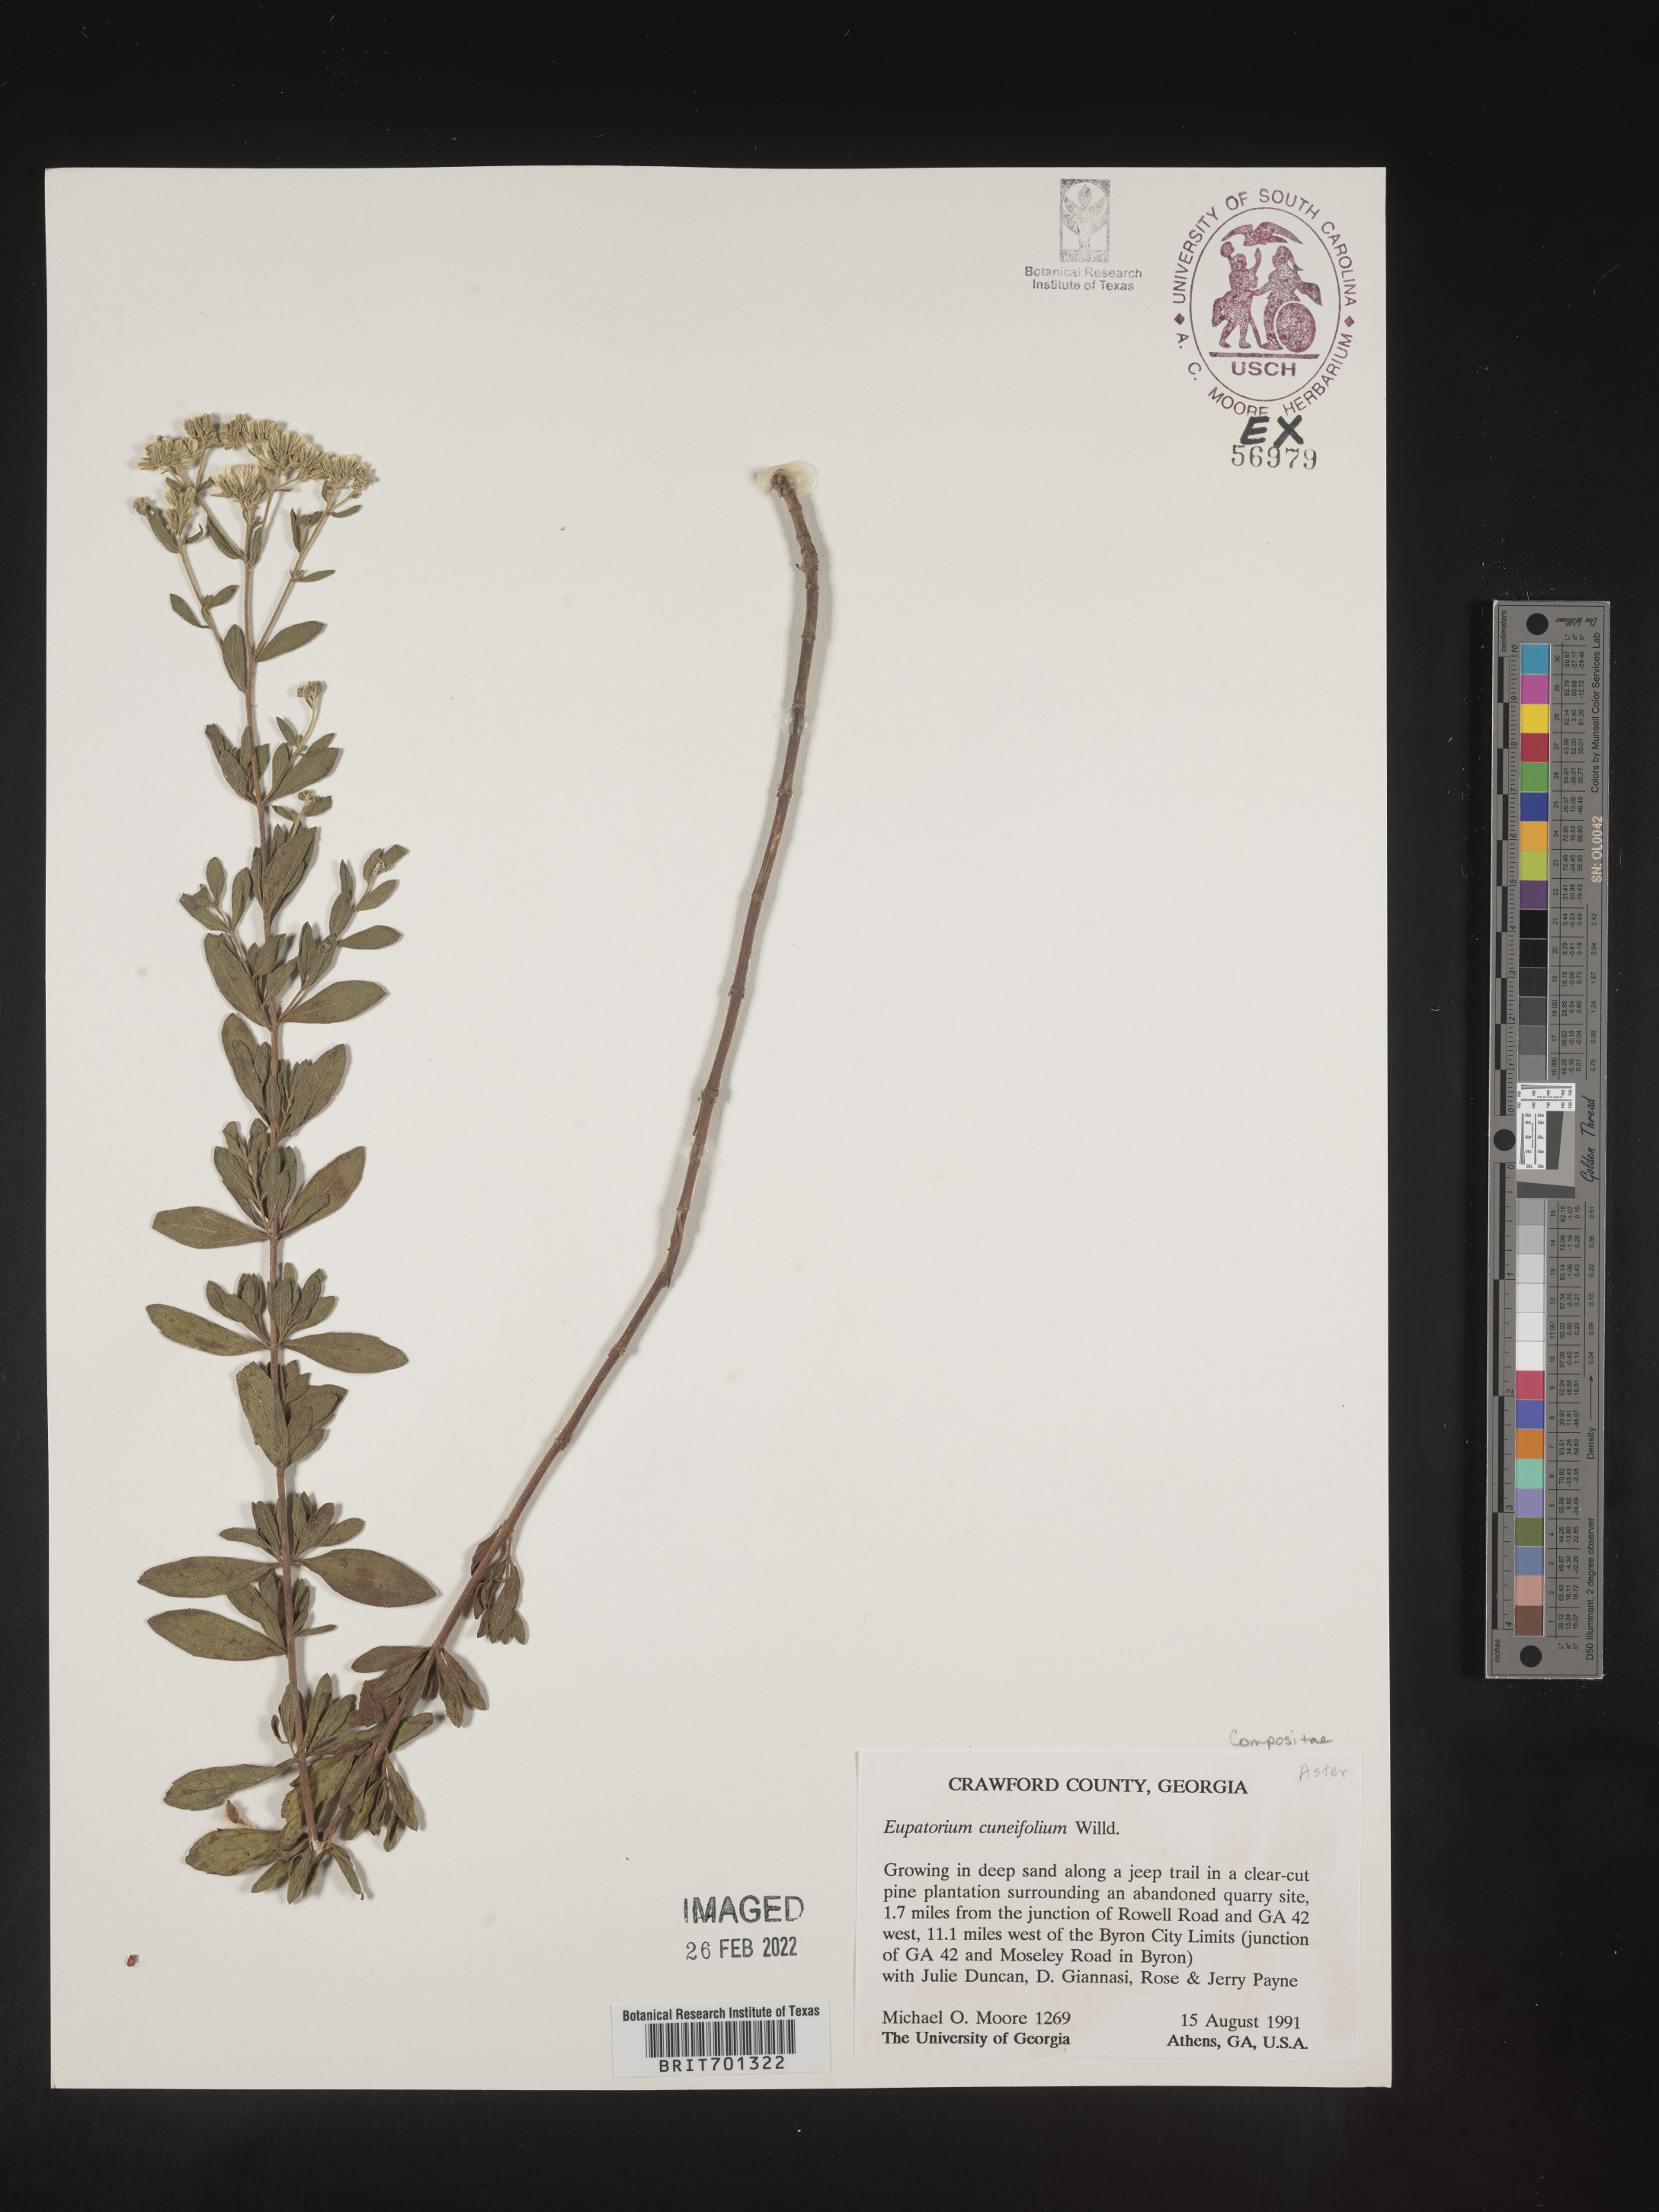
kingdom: Plantae
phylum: Tracheophyta
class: Magnoliopsida
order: Asterales
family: Asteraceae
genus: Eupatorium
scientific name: Eupatorium linearifolium
